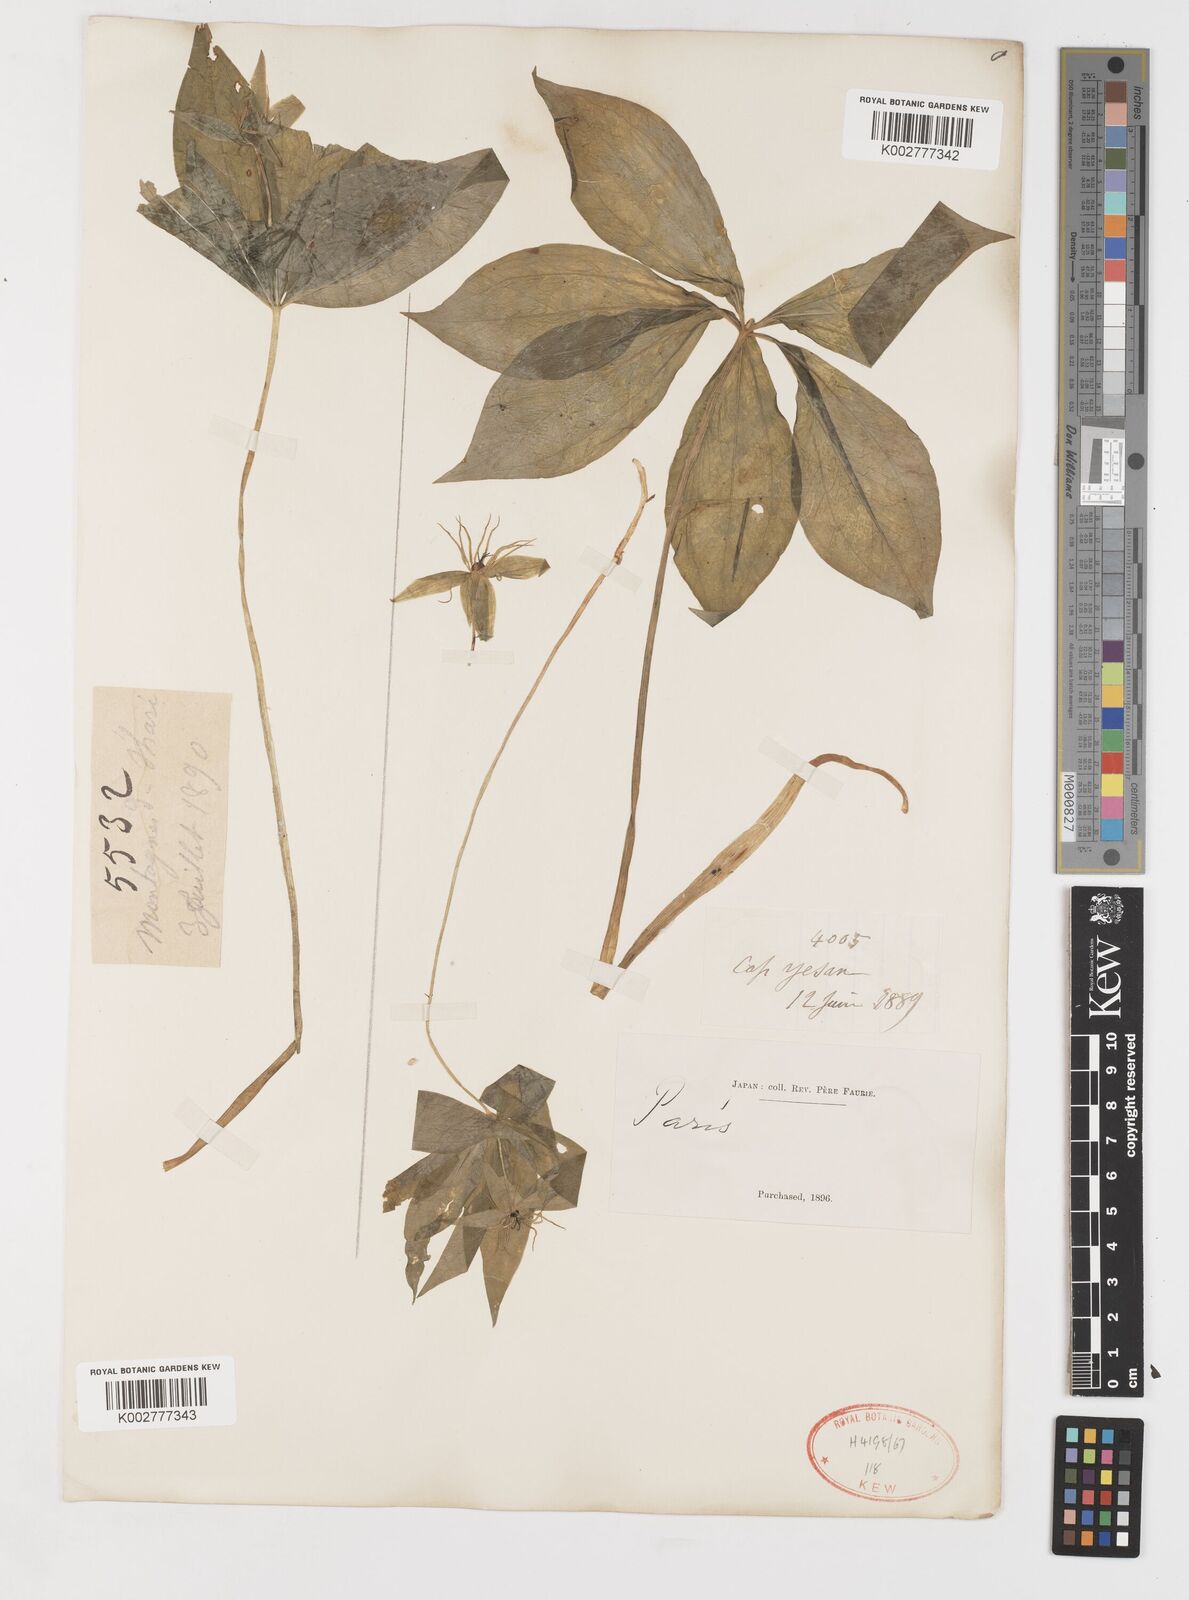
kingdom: Plantae
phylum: Tracheophyta
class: Liliopsida
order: Liliales
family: Melanthiaceae
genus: Paris
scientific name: Paris verticillata
